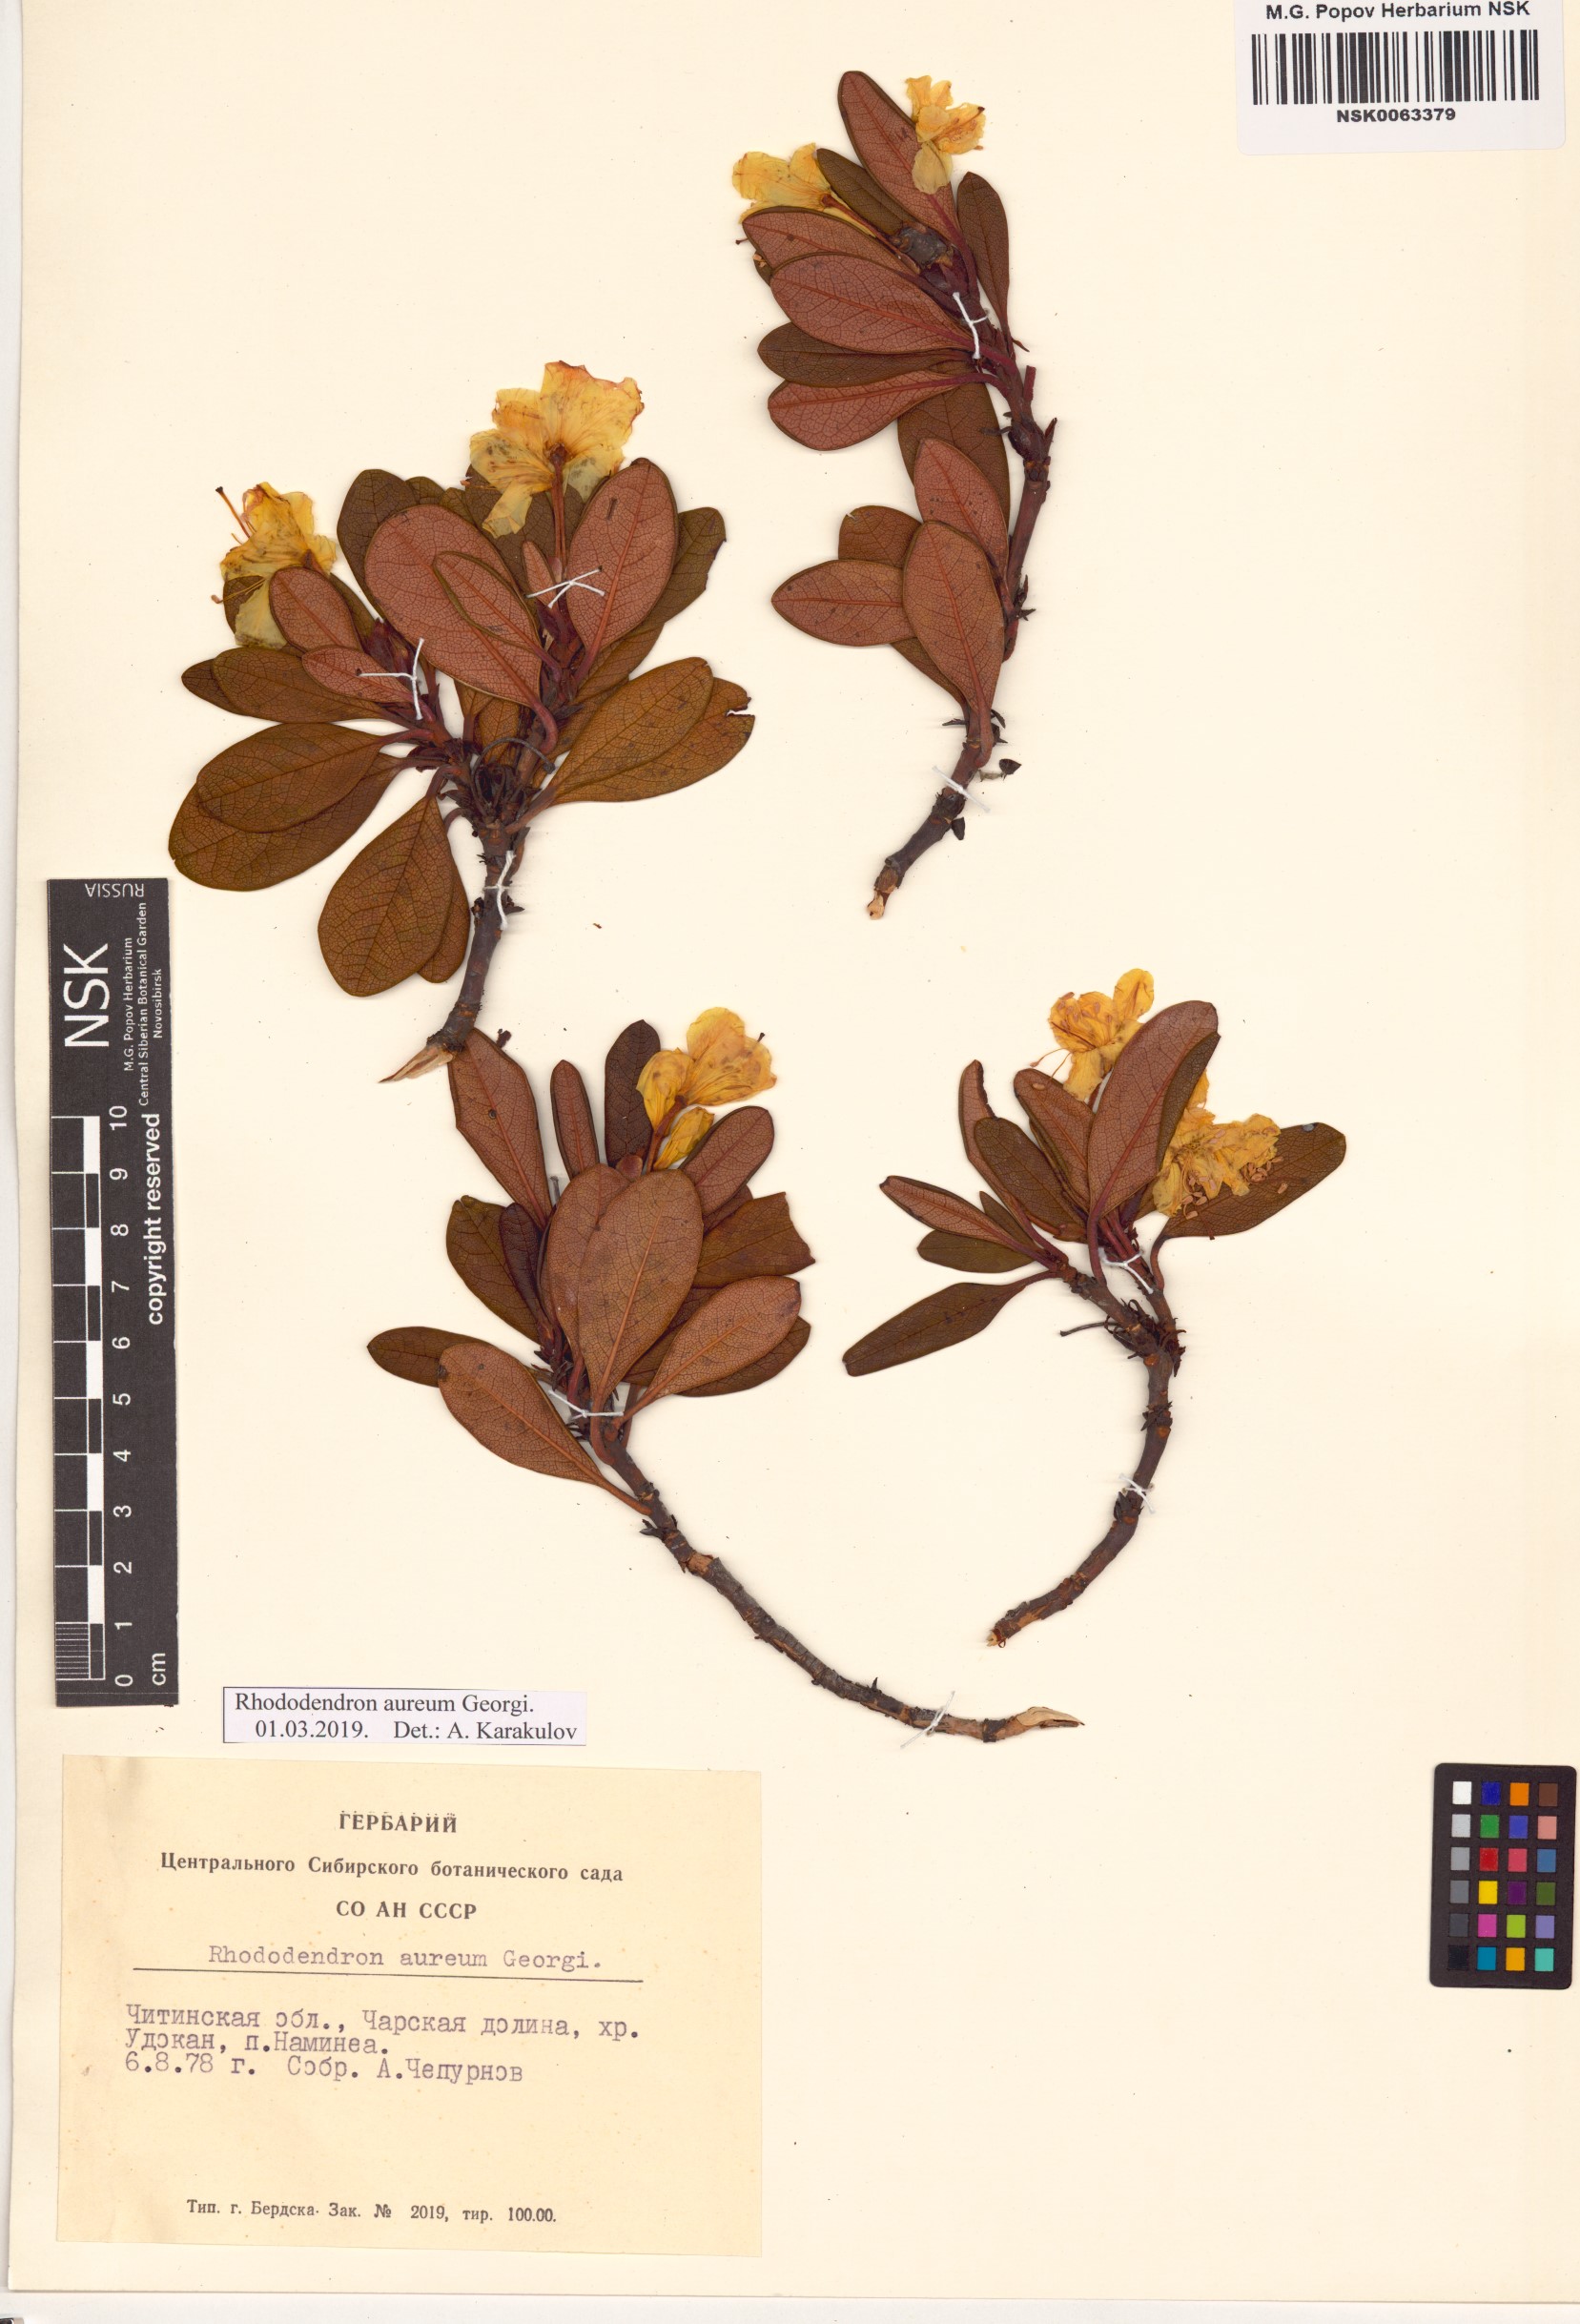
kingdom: Plantae
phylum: Tracheophyta
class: Magnoliopsida
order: Ericales
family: Ericaceae
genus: Rhododendron
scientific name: Rhododendron aureum
